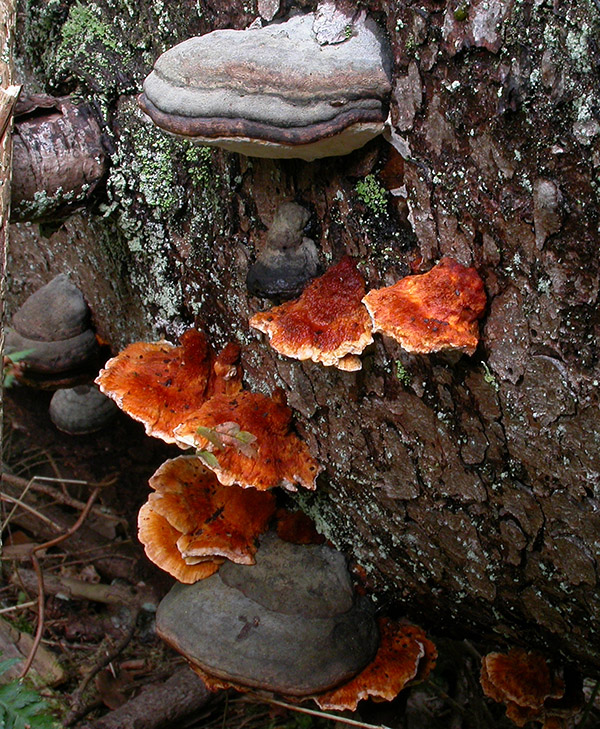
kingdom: Fungi
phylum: Basidiomycota
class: Agaricomycetes
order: Polyporales
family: Pycnoporellaceae
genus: Pycnoporellus
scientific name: Pycnoporellus fulgens
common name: flammeporesvamp
